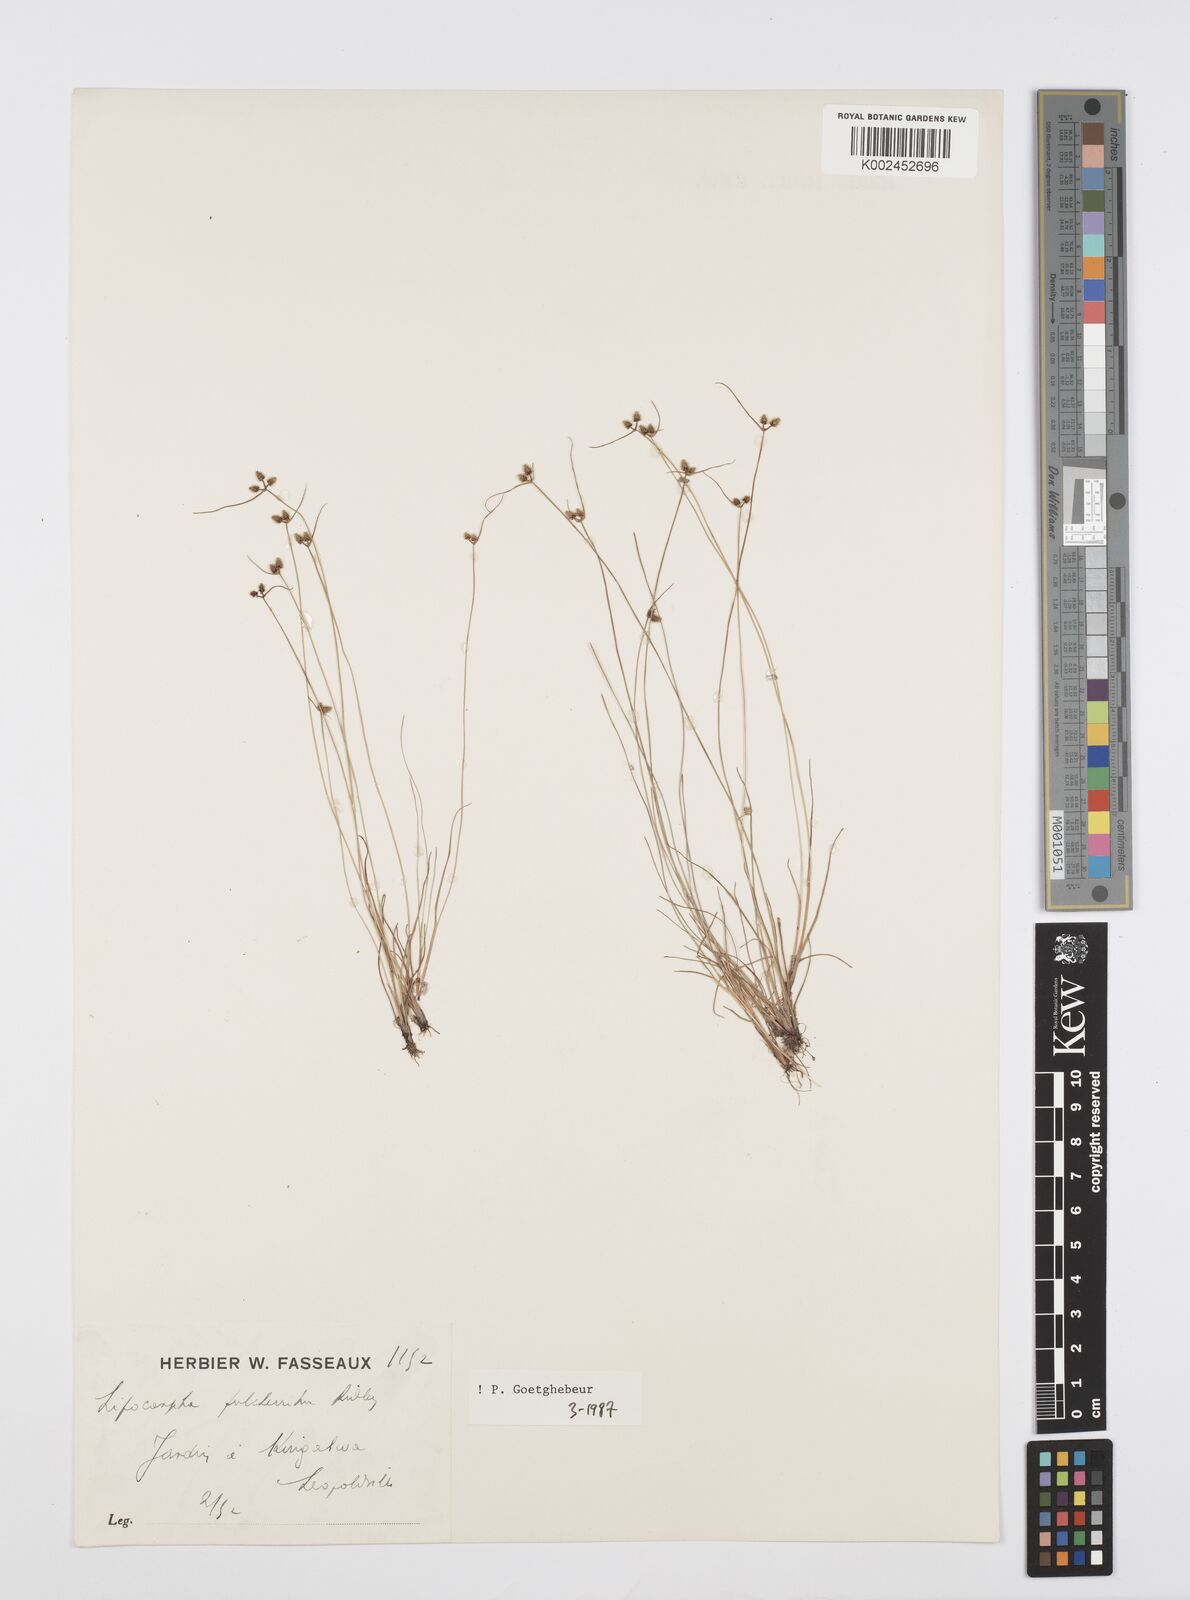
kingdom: Plantae
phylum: Tracheophyta
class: Liliopsida
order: Poales
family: Cyperaceae
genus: Cyperus
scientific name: Cyperus persquarrosus
